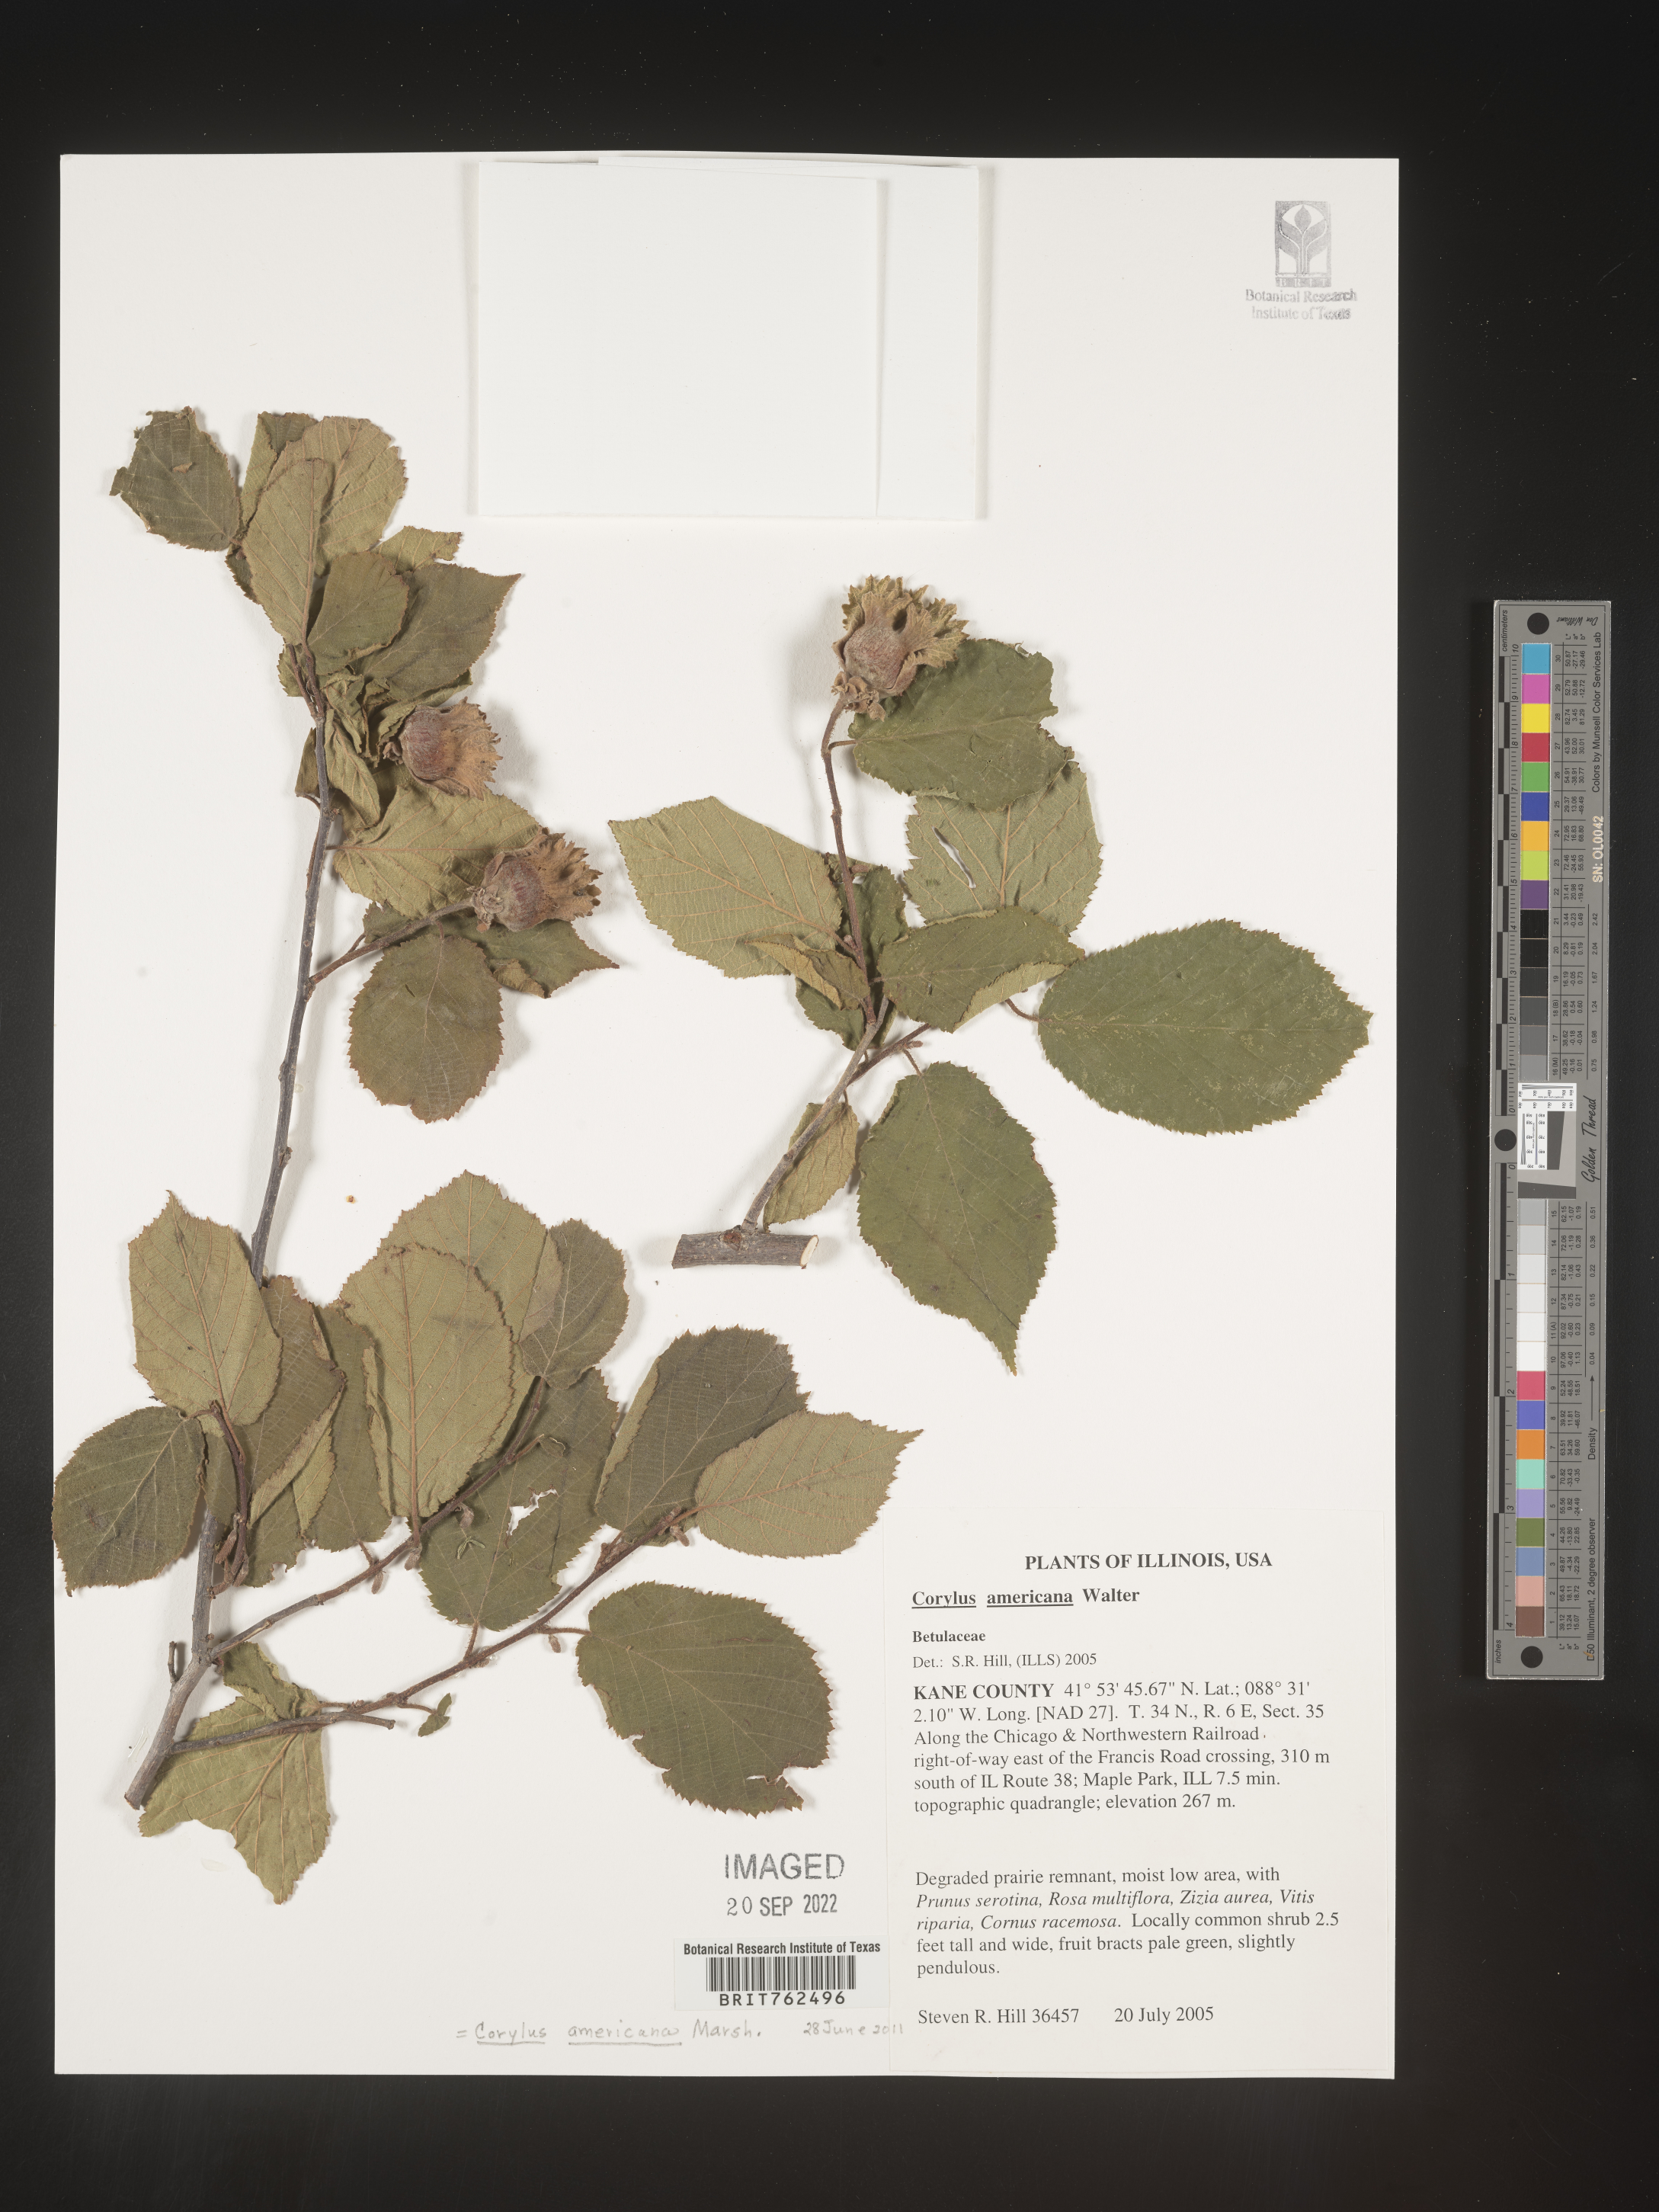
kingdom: Plantae
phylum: Tracheophyta
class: Magnoliopsida
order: Fagales
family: Betulaceae
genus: Corylus
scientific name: Corylus americana
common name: American hazel
